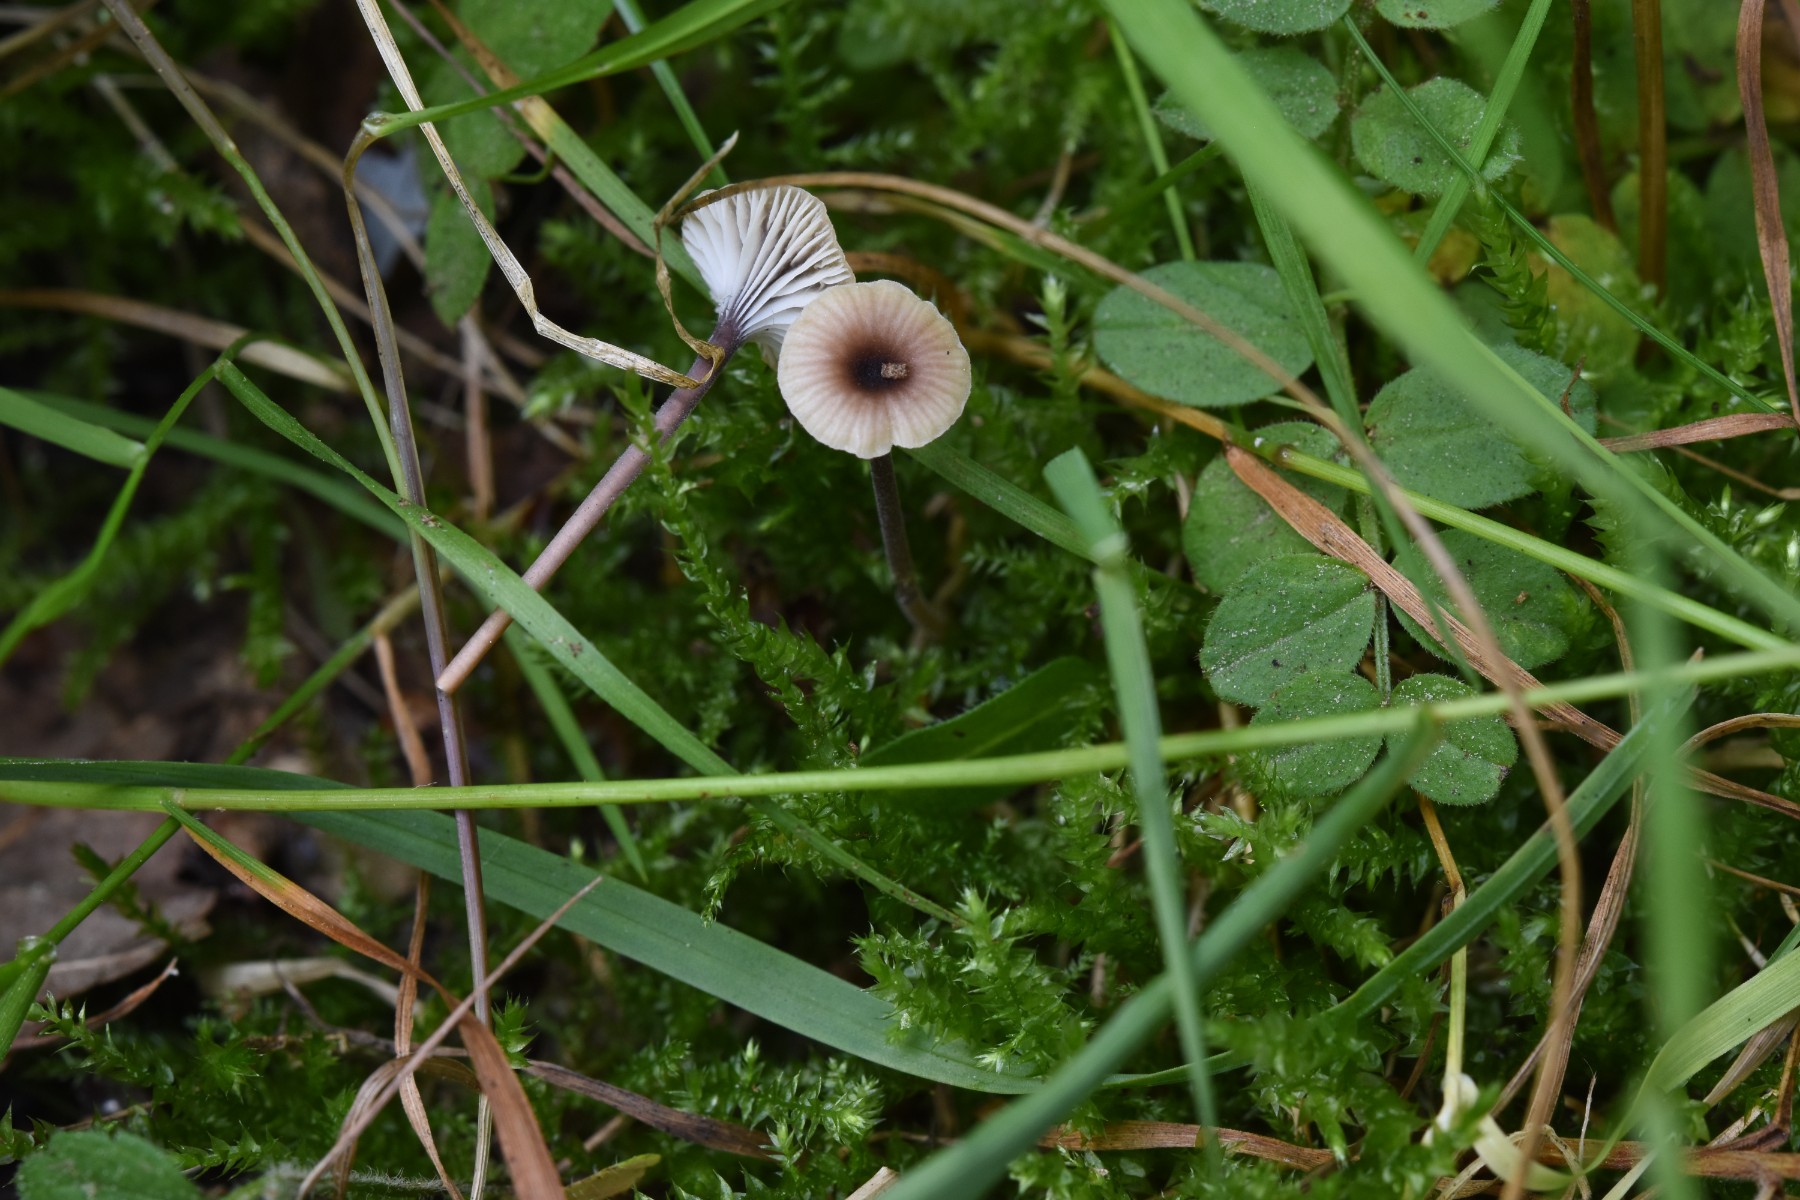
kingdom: Fungi
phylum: Basidiomycota
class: Agaricomycetes
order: Hymenochaetales
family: Rickenellaceae
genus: Rickenella
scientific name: Rickenella swartzii
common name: finstokket mosnavlehat
